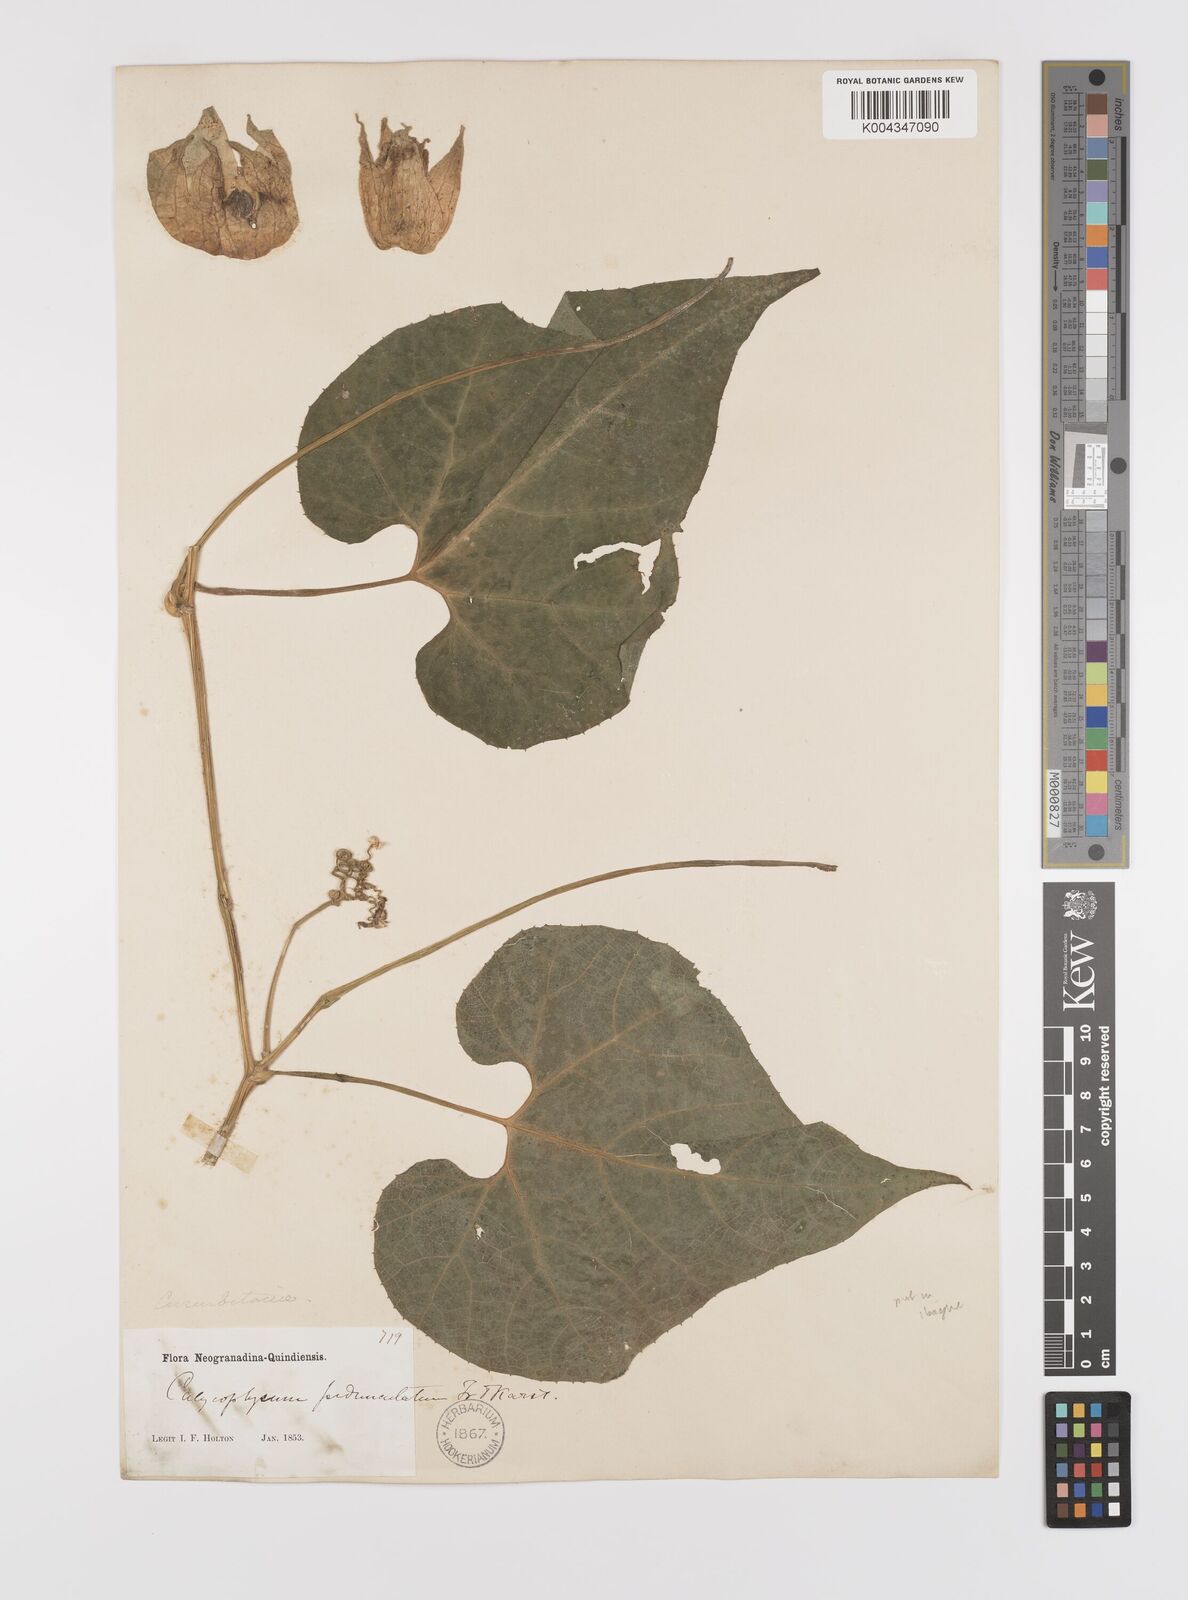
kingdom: Plantae
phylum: Tracheophyta
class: Magnoliopsida
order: Cucurbitales
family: Cucurbitaceae
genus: Calycophysum
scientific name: Calycophysum pedunculatum
